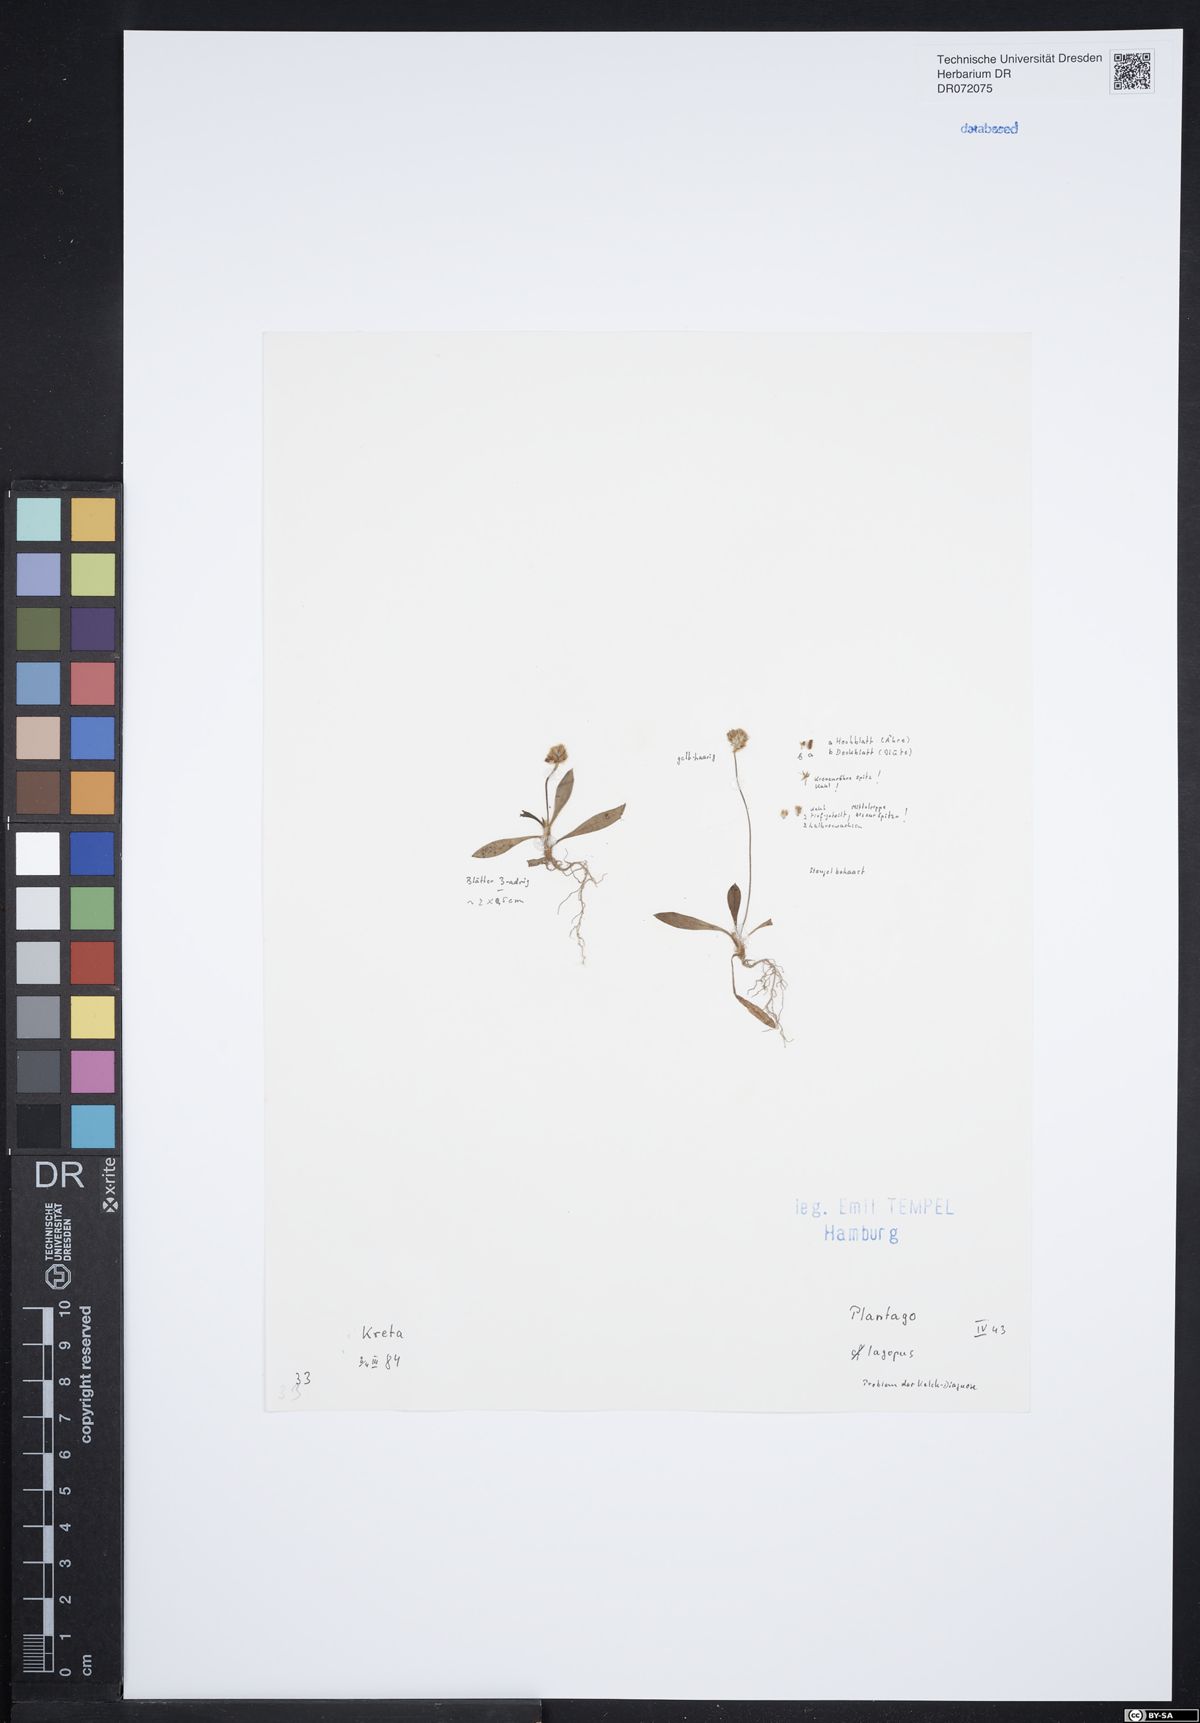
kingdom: Plantae
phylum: Tracheophyta
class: Magnoliopsida
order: Lamiales
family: Plantaginaceae
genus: Plantago
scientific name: Plantago lagopus
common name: Hare-foot plantain
